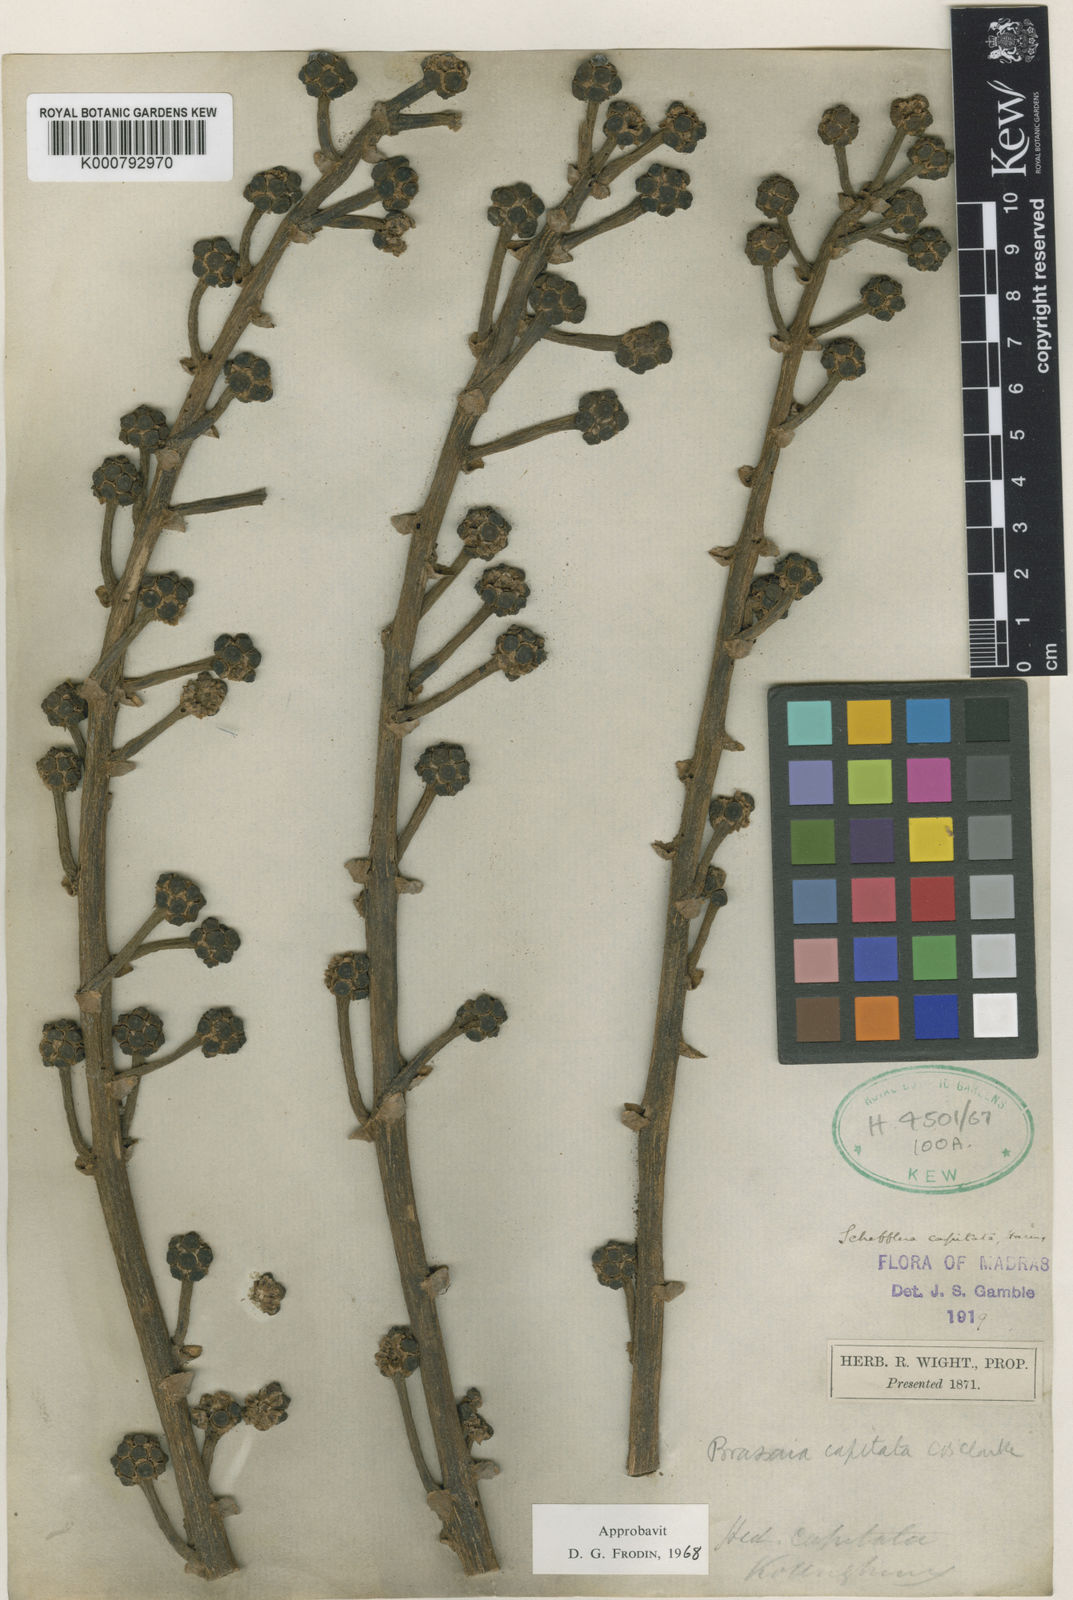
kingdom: Plantae
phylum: Tracheophyta
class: Magnoliopsida
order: Apiales
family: Araliaceae
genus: Heptapleurum
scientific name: Heptapleurum capitatum
